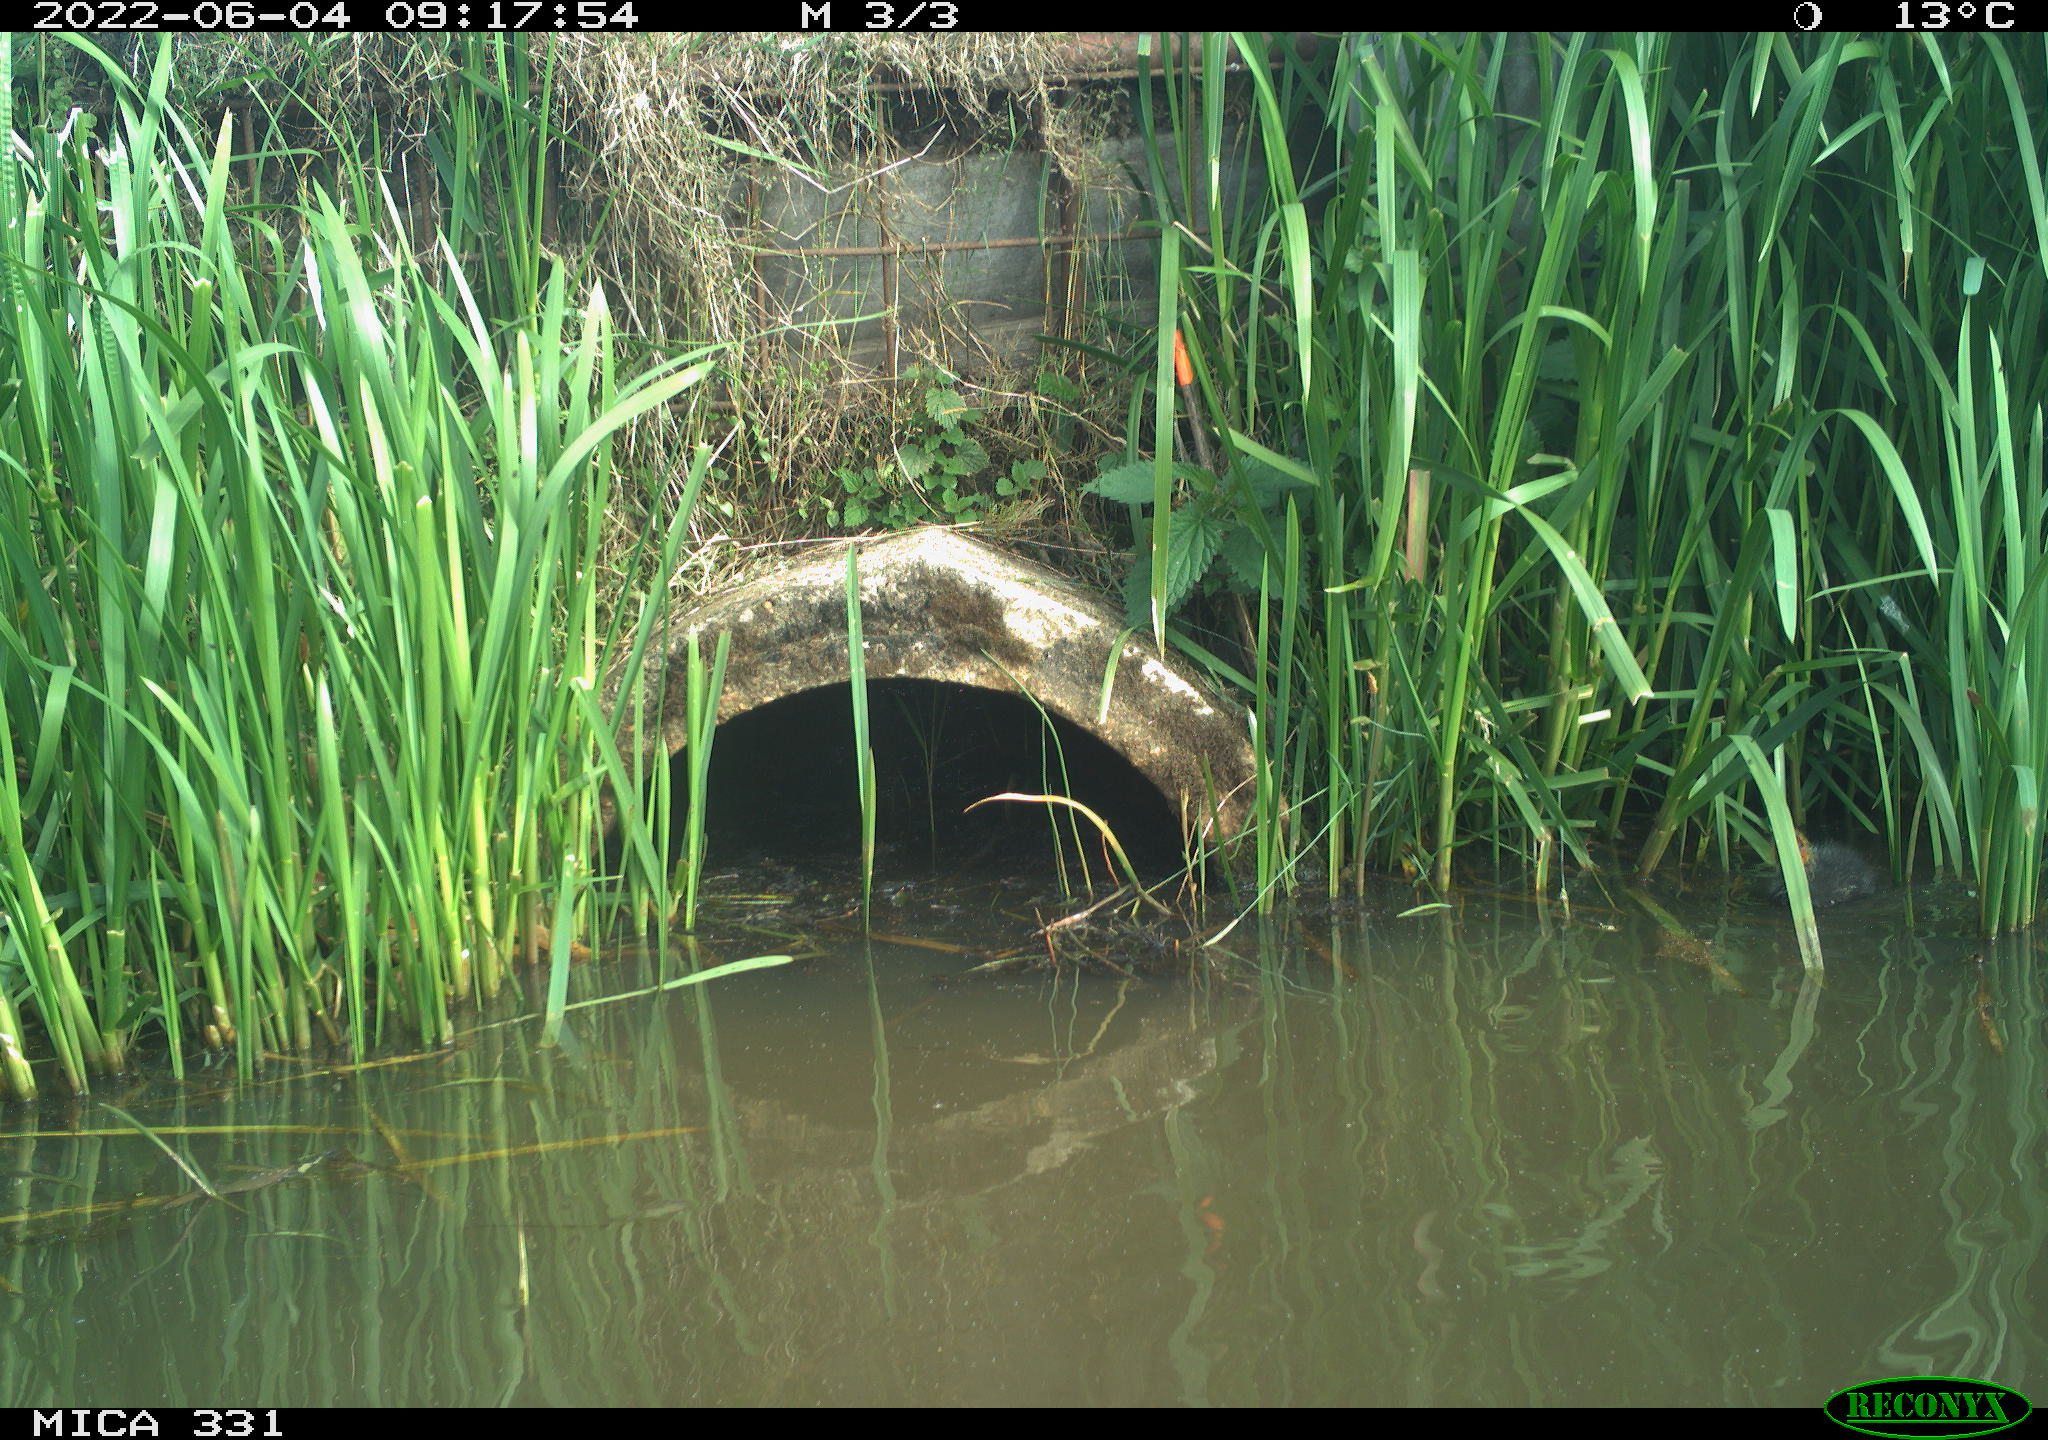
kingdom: Animalia
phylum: Chordata
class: Aves
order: Gruiformes
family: Rallidae
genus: Fulica
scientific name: Fulica atra
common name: Eurasian coot
